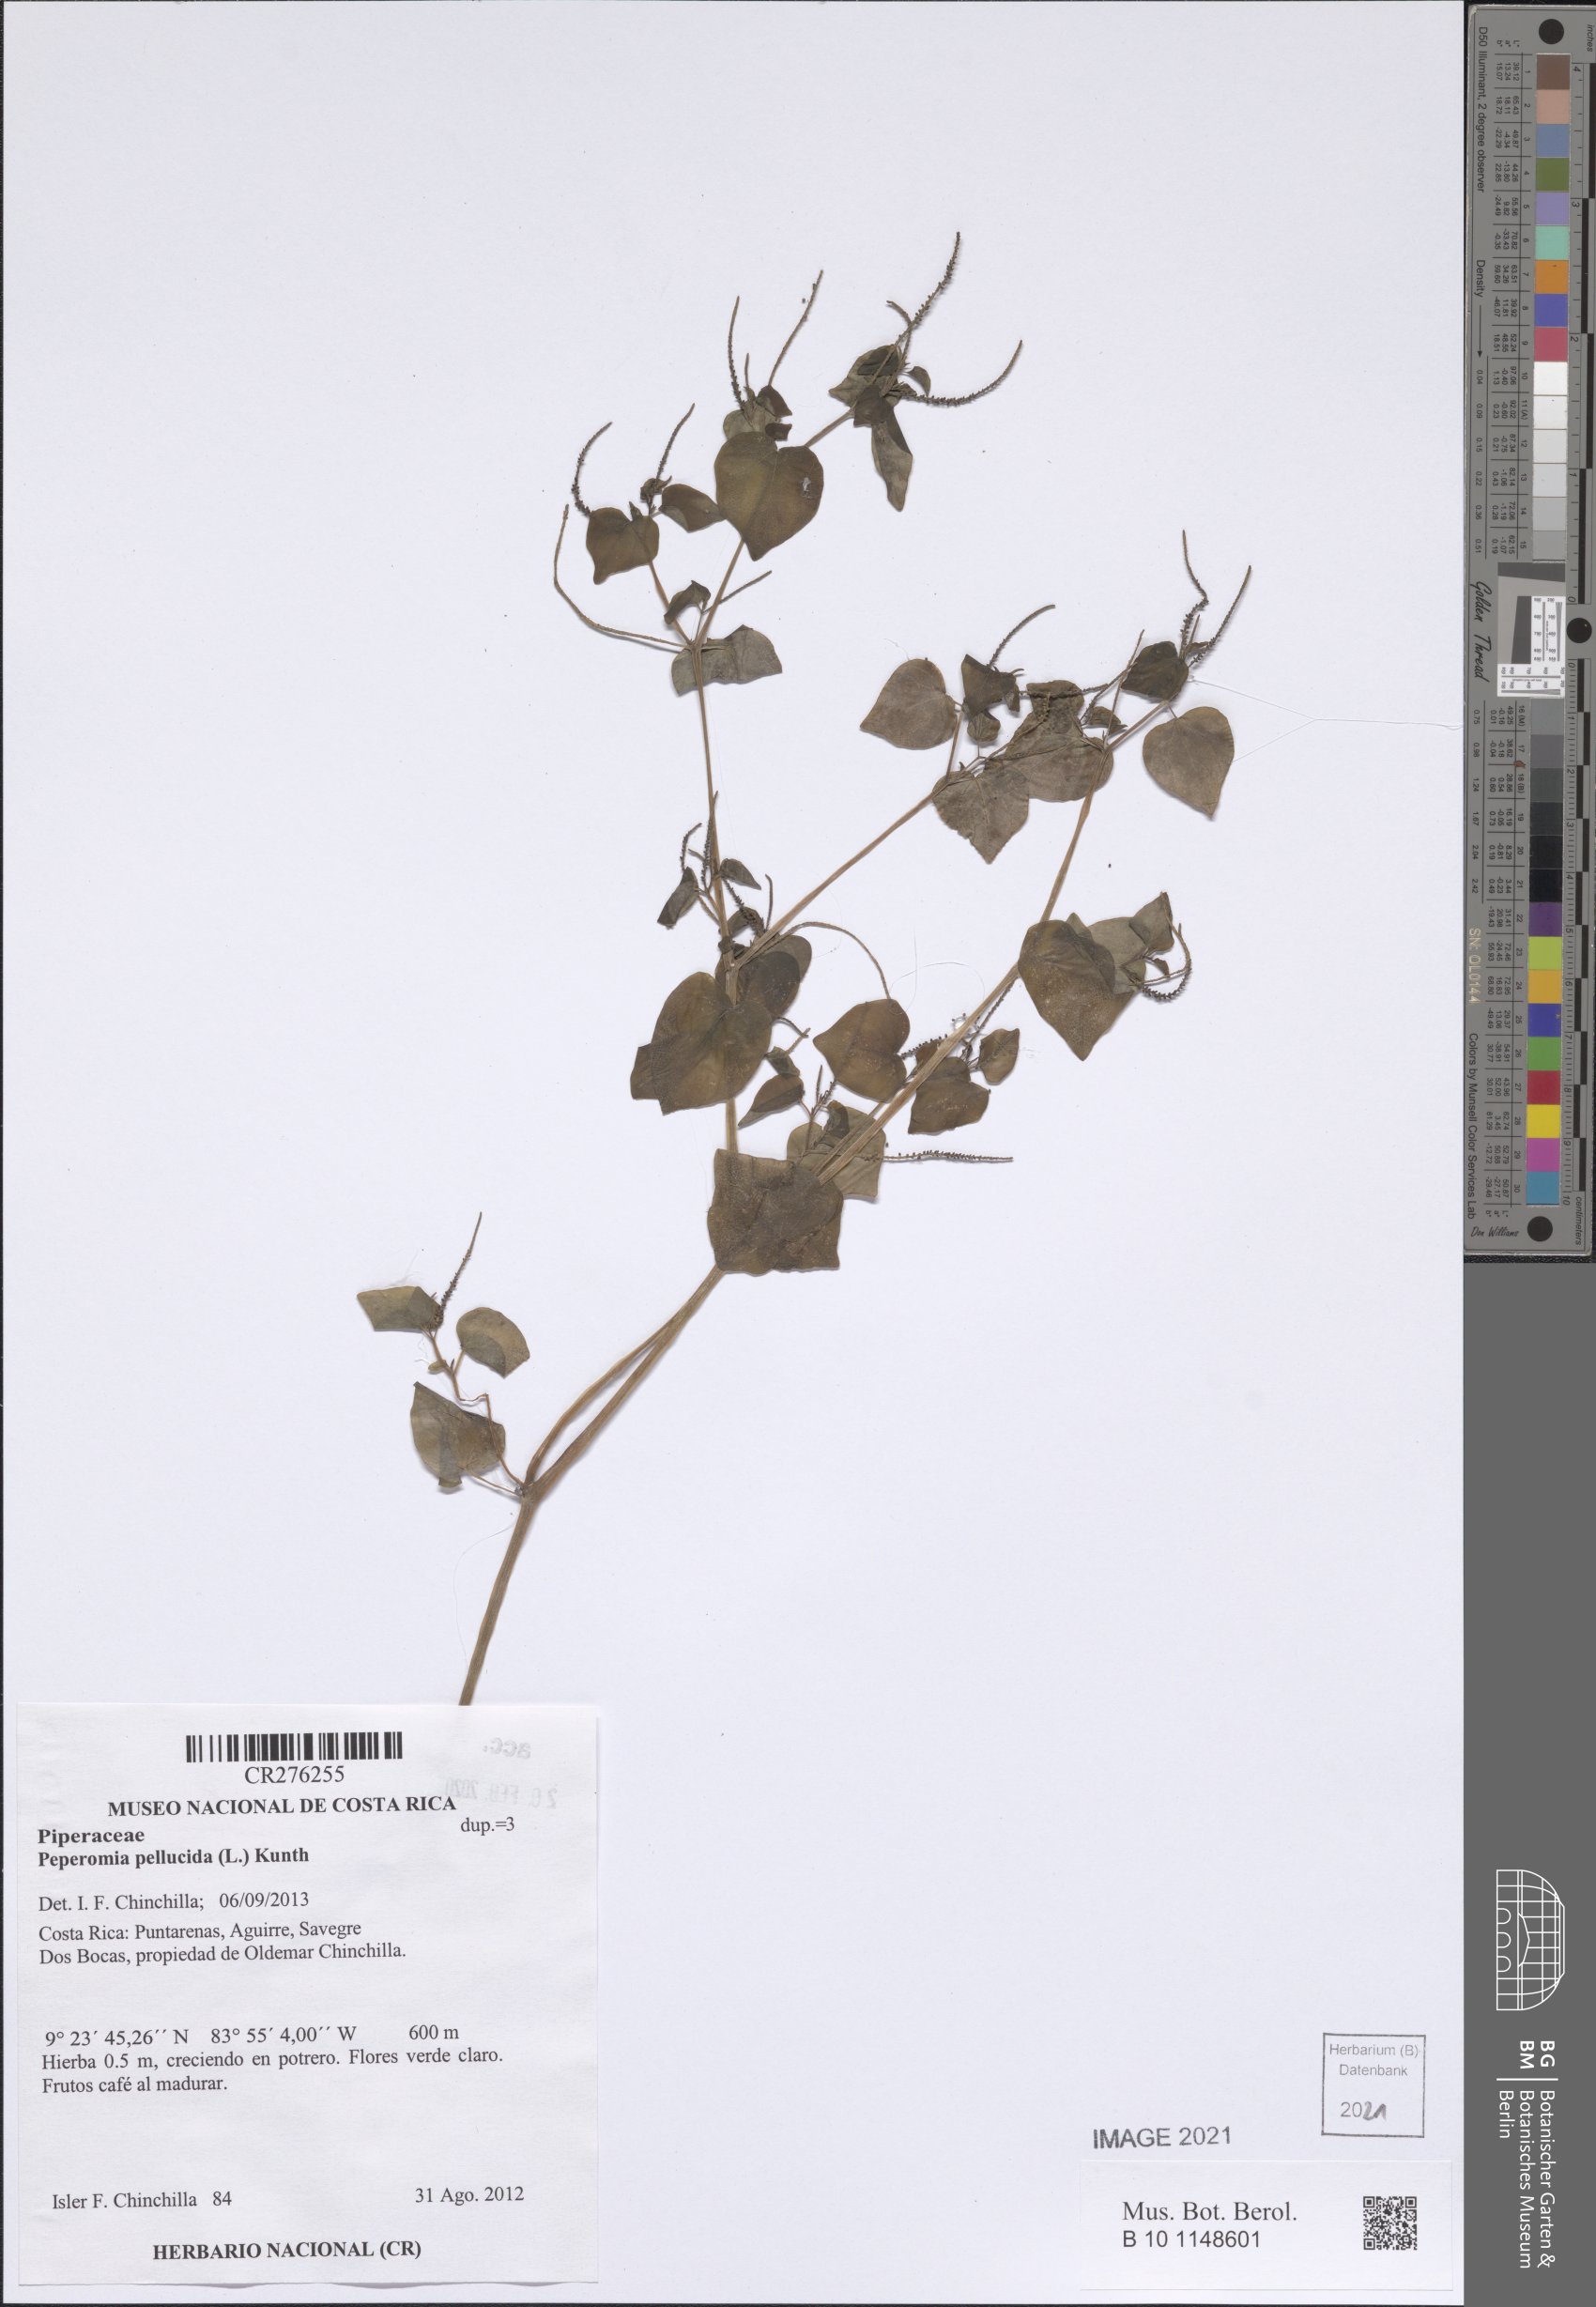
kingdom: Plantae
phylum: Tracheophyta
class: Magnoliopsida
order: Piperales
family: Piperaceae
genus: Peperomia
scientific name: Peperomia pellucida
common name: Man to man
